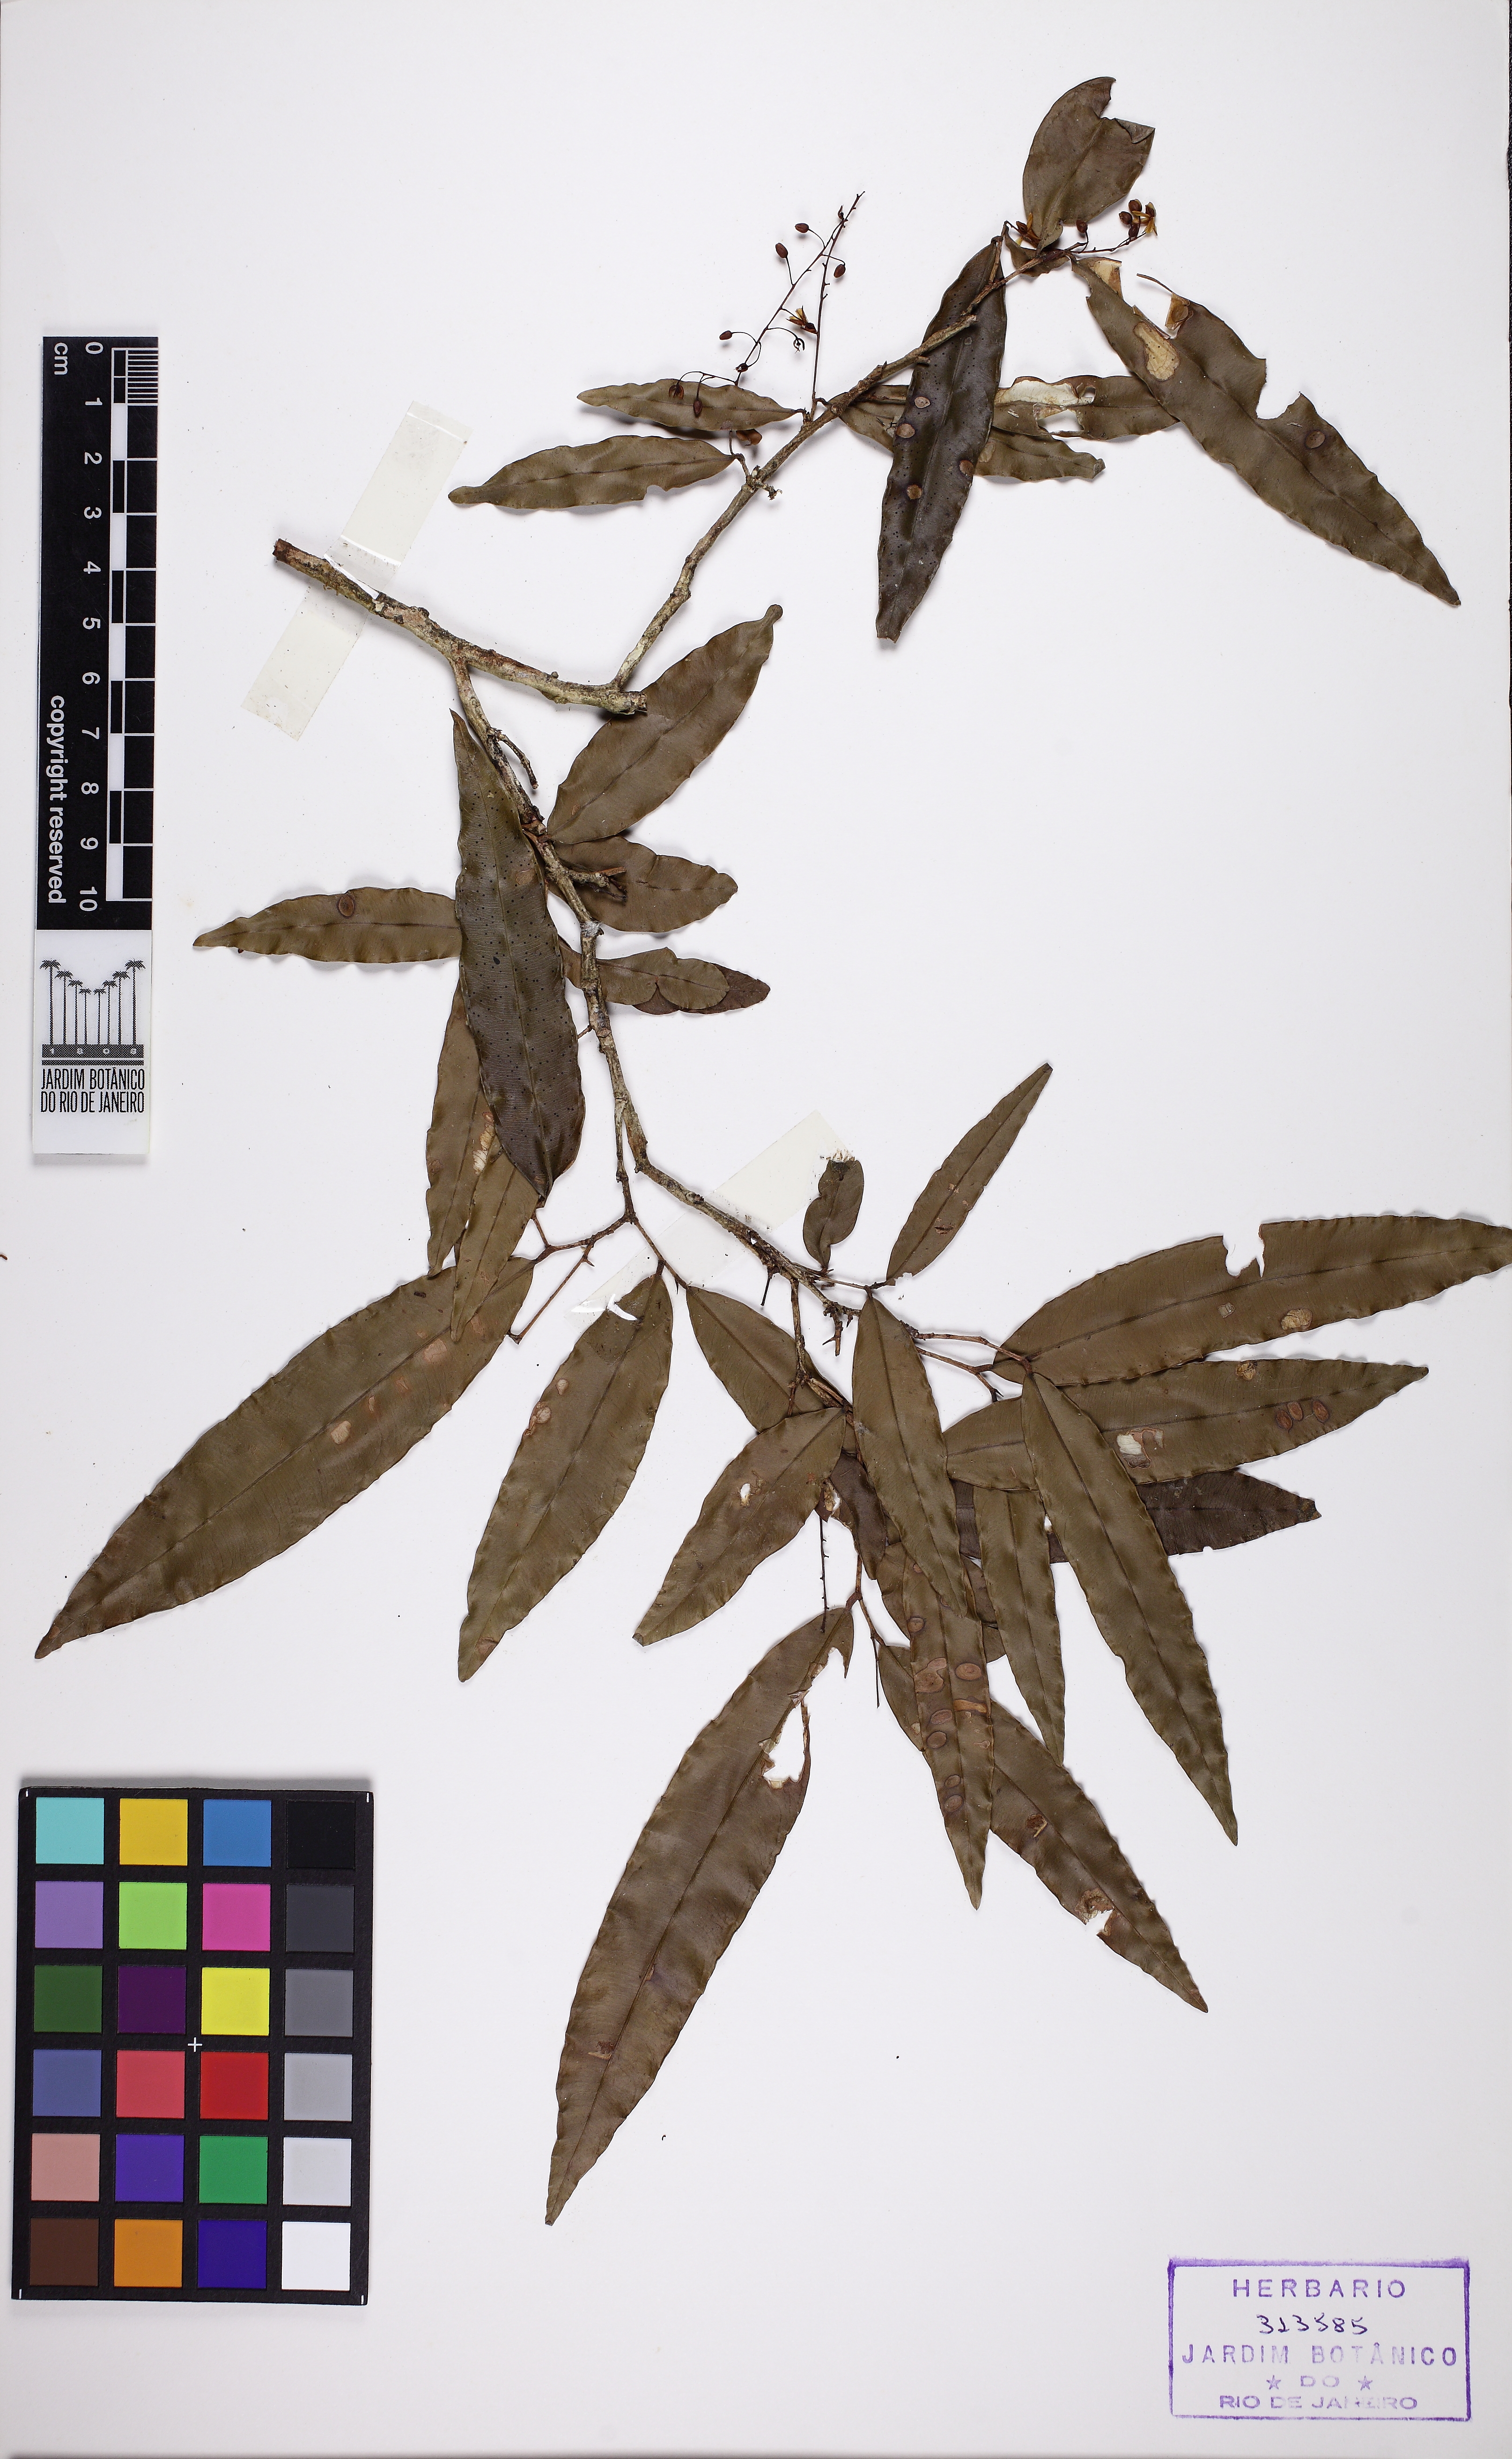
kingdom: Plantae
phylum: Tracheophyta
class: Magnoliopsida
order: Malpighiales
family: Ochnaceae
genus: Ouratea
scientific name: Ouratea parviflora
